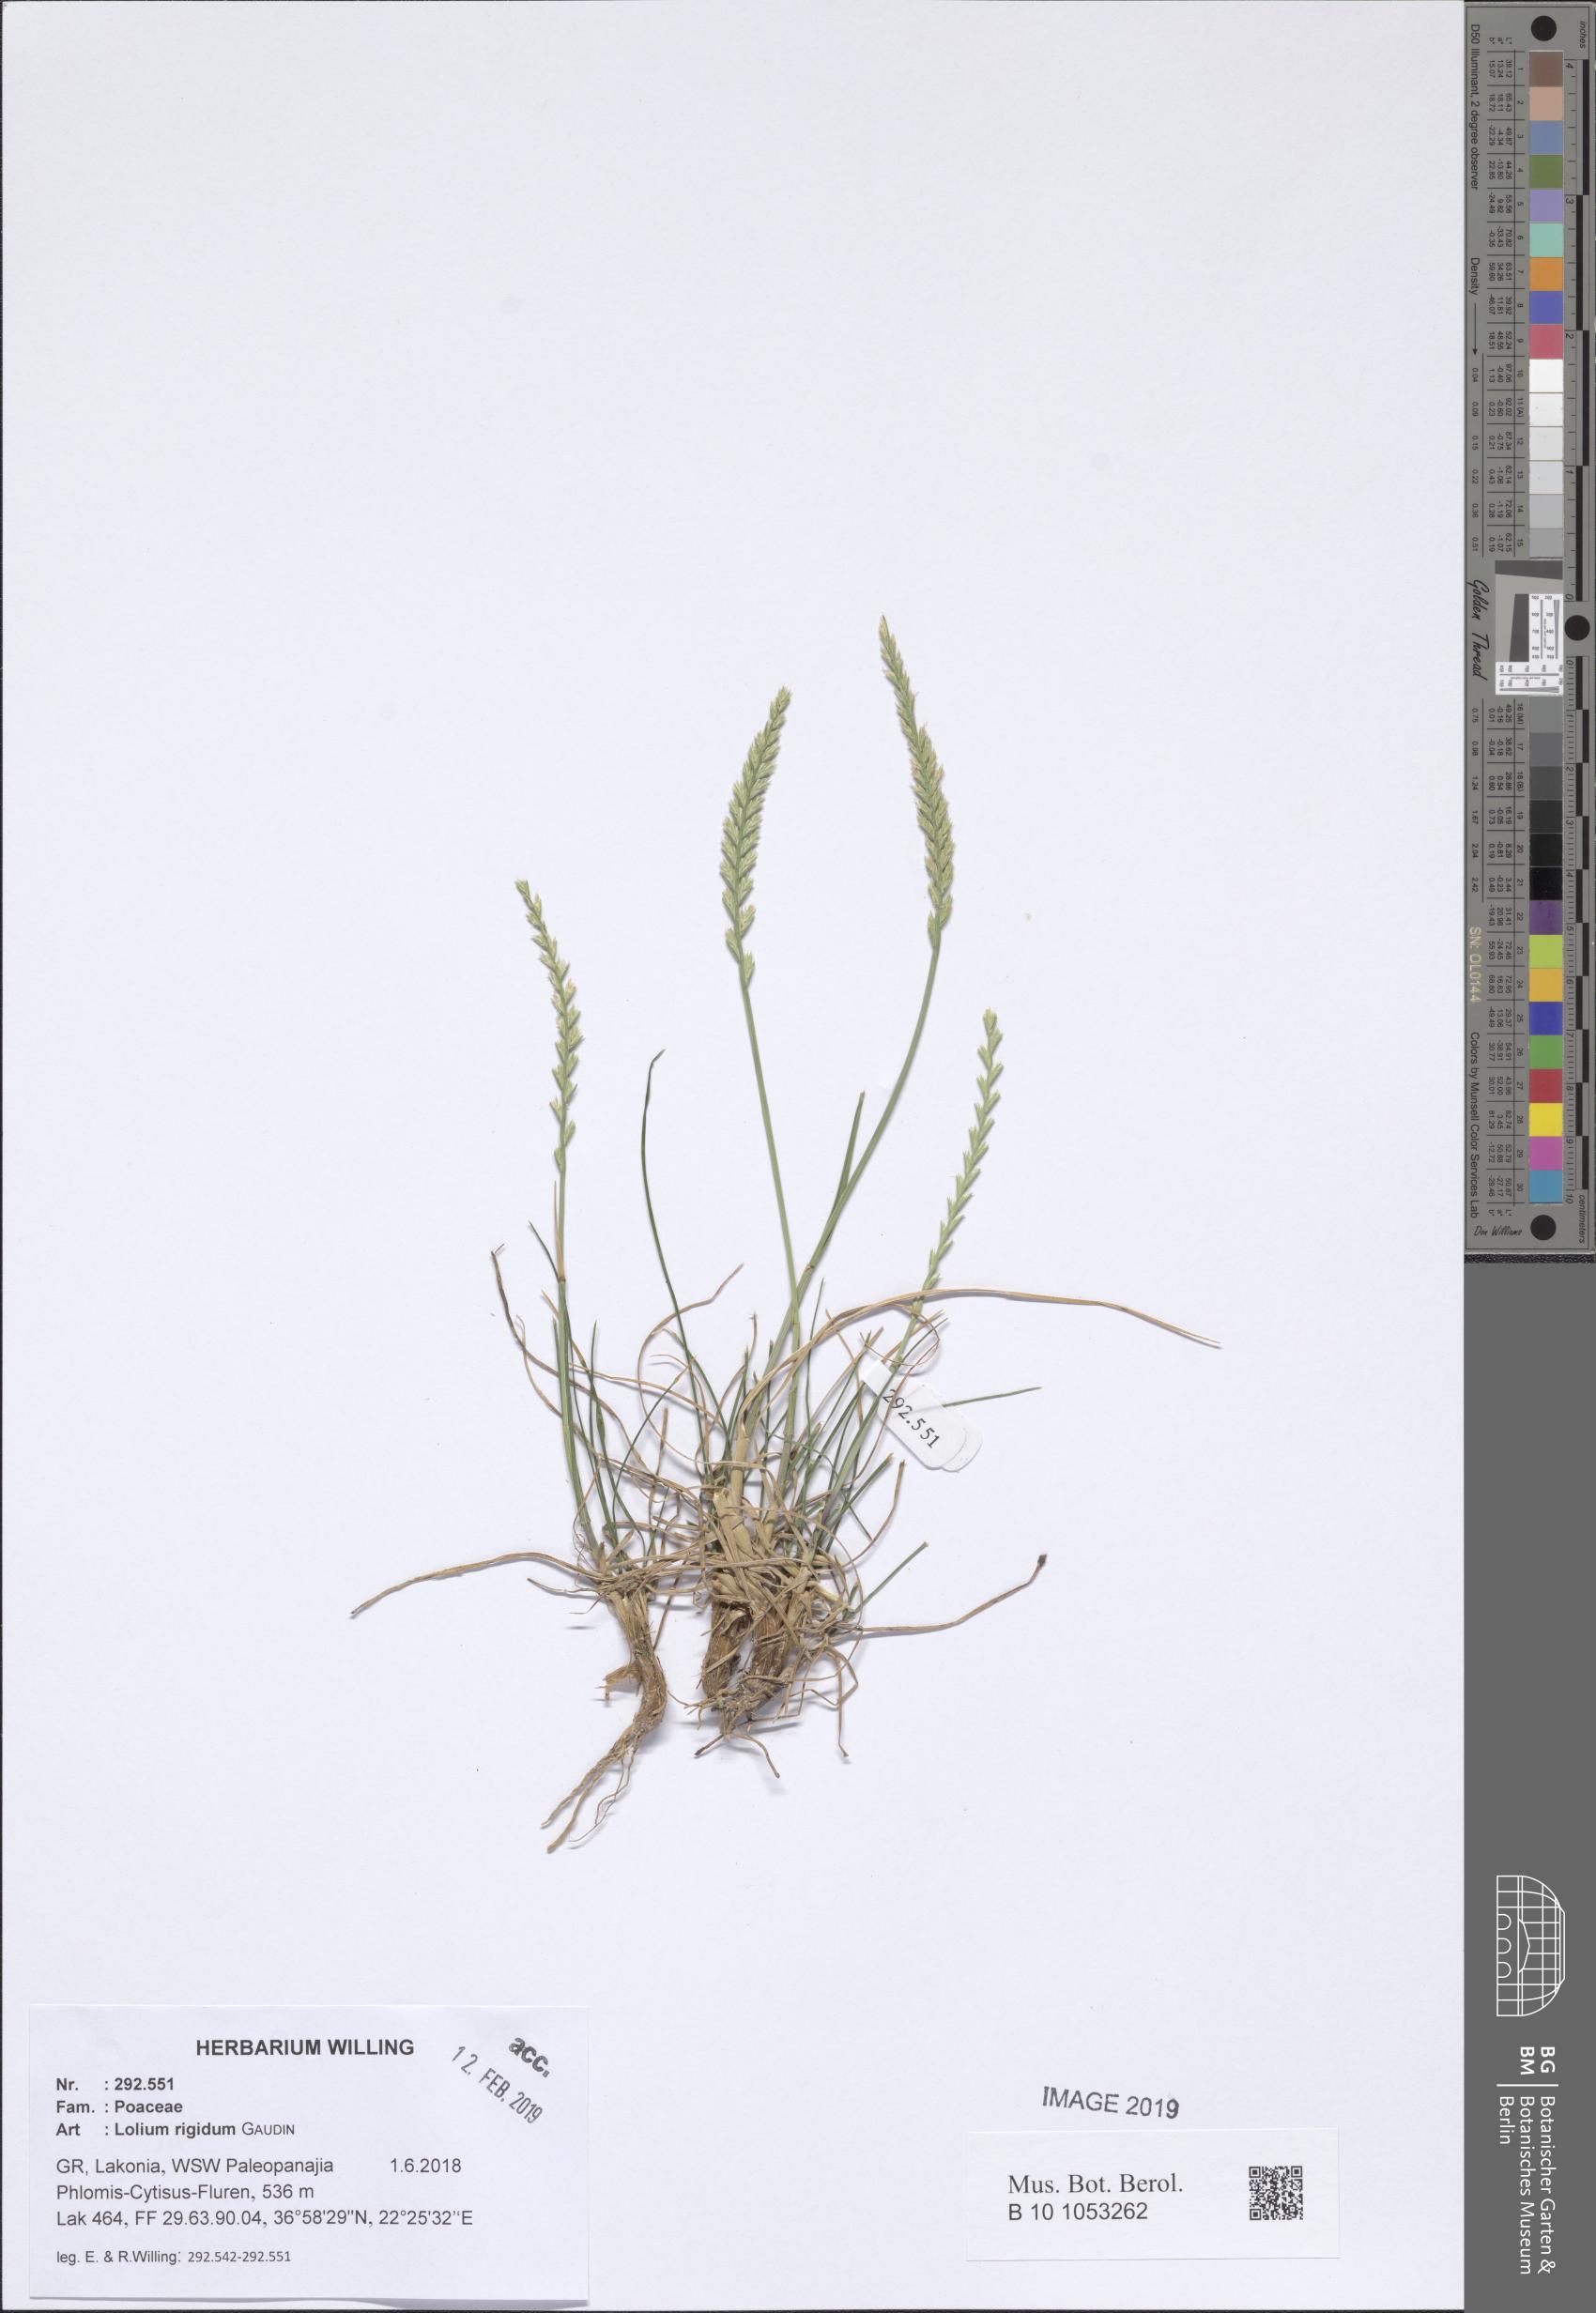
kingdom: Plantae
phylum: Tracheophyta
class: Liliopsida
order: Poales
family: Poaceae
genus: Lolium
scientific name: Lolium rigidum
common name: Wimmera ryegrass
